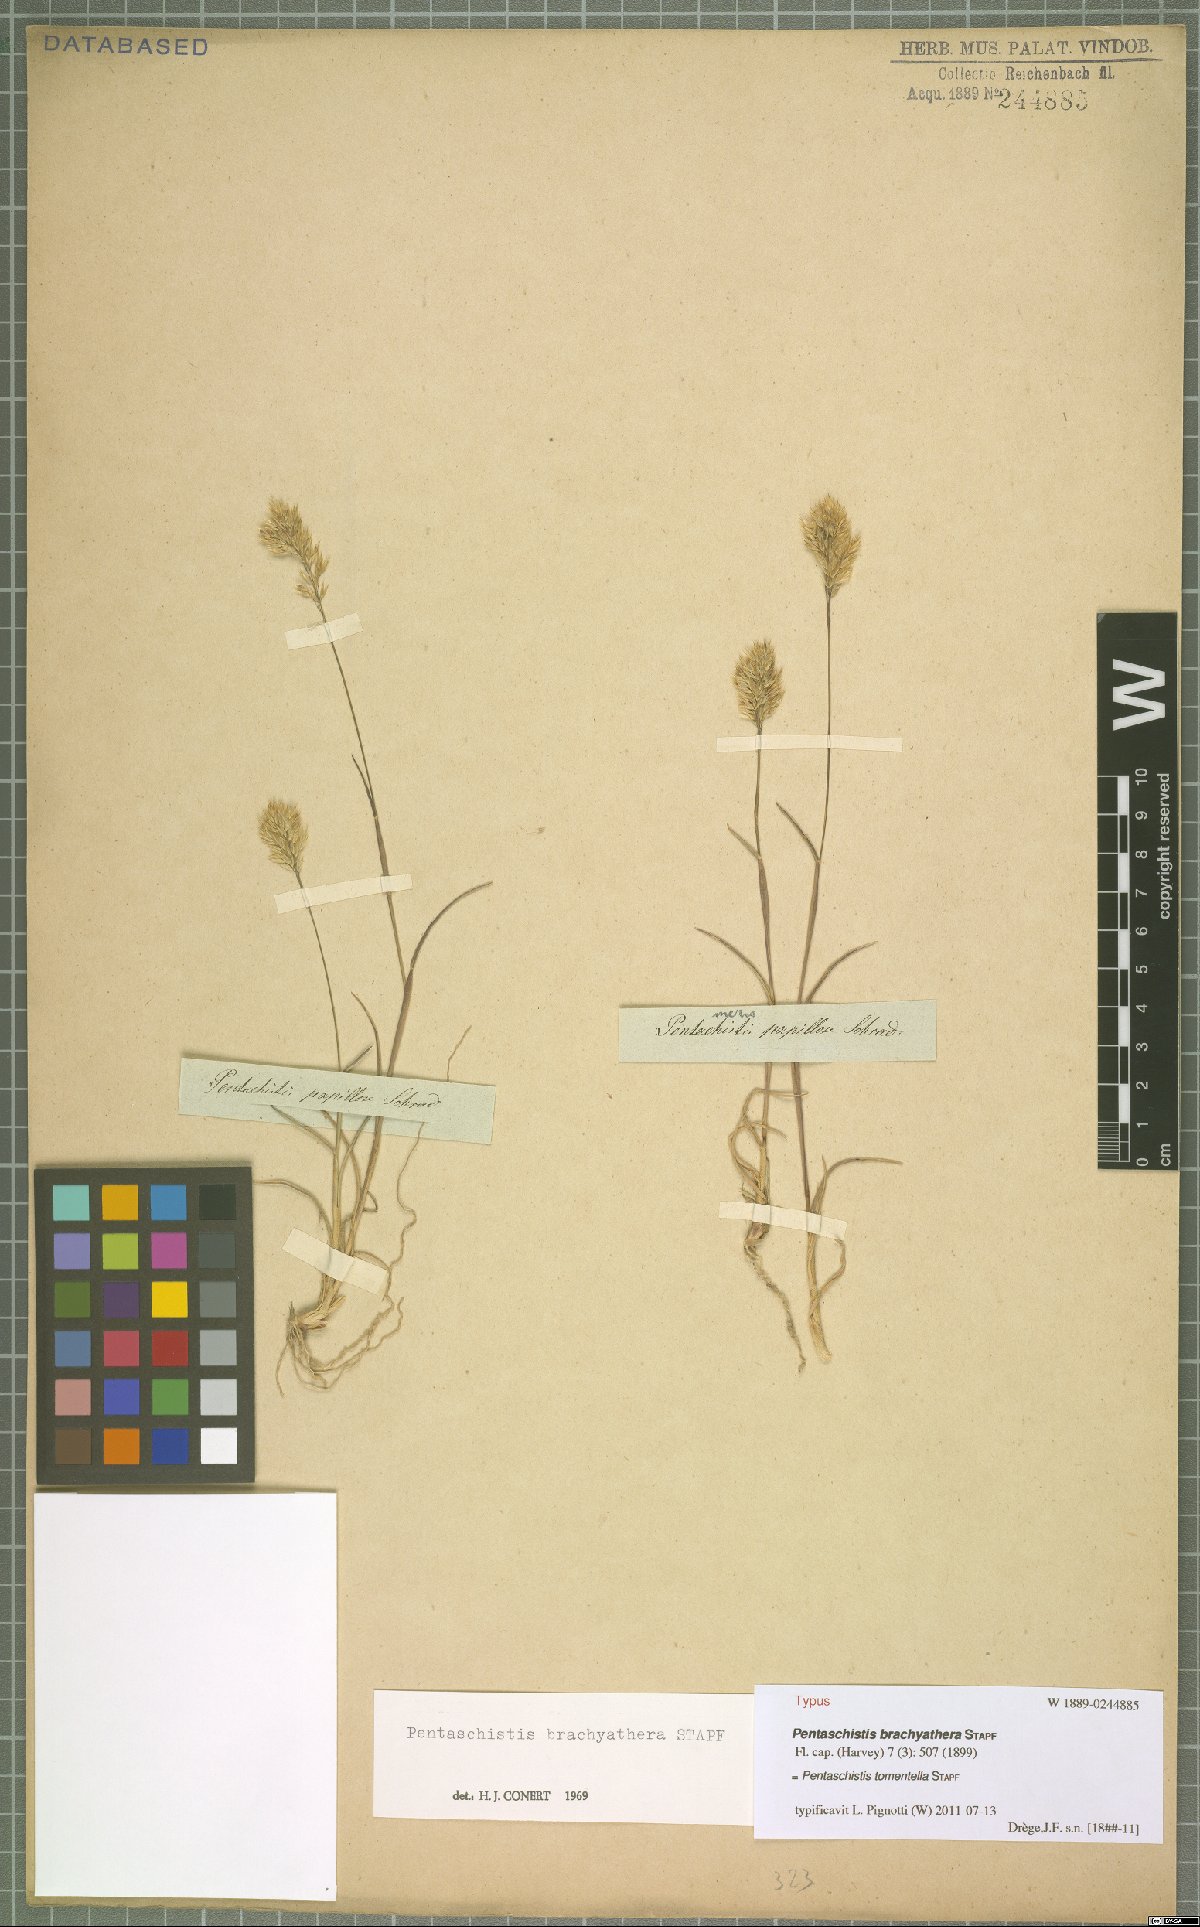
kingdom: Plantae
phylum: Tracheophyta
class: Liliopsida
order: Poales
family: Poaceae
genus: Pentameris
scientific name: Pentameris tomentella
